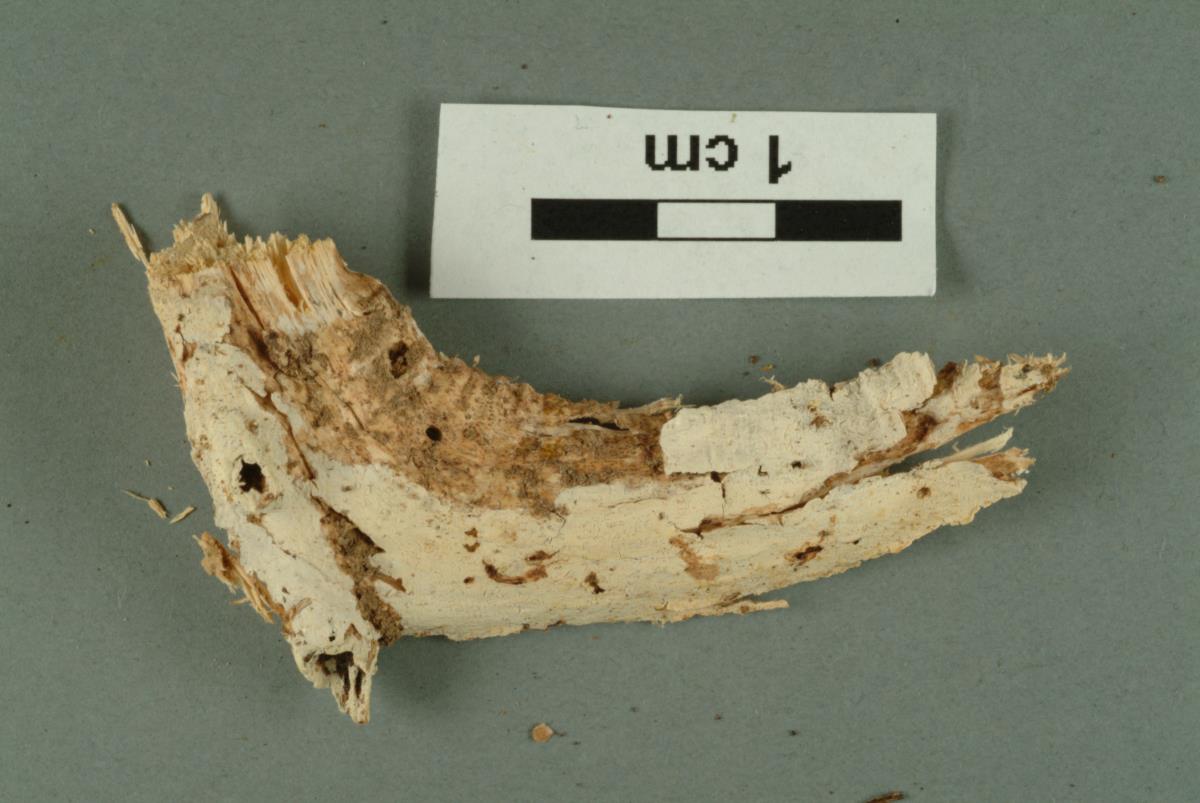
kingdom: Fungi
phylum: Basidiomycota
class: Agaricomycetes
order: Russulales
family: Stereaceae
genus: Gloeocystidiellum
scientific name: Gloeocystidiellum porosum
